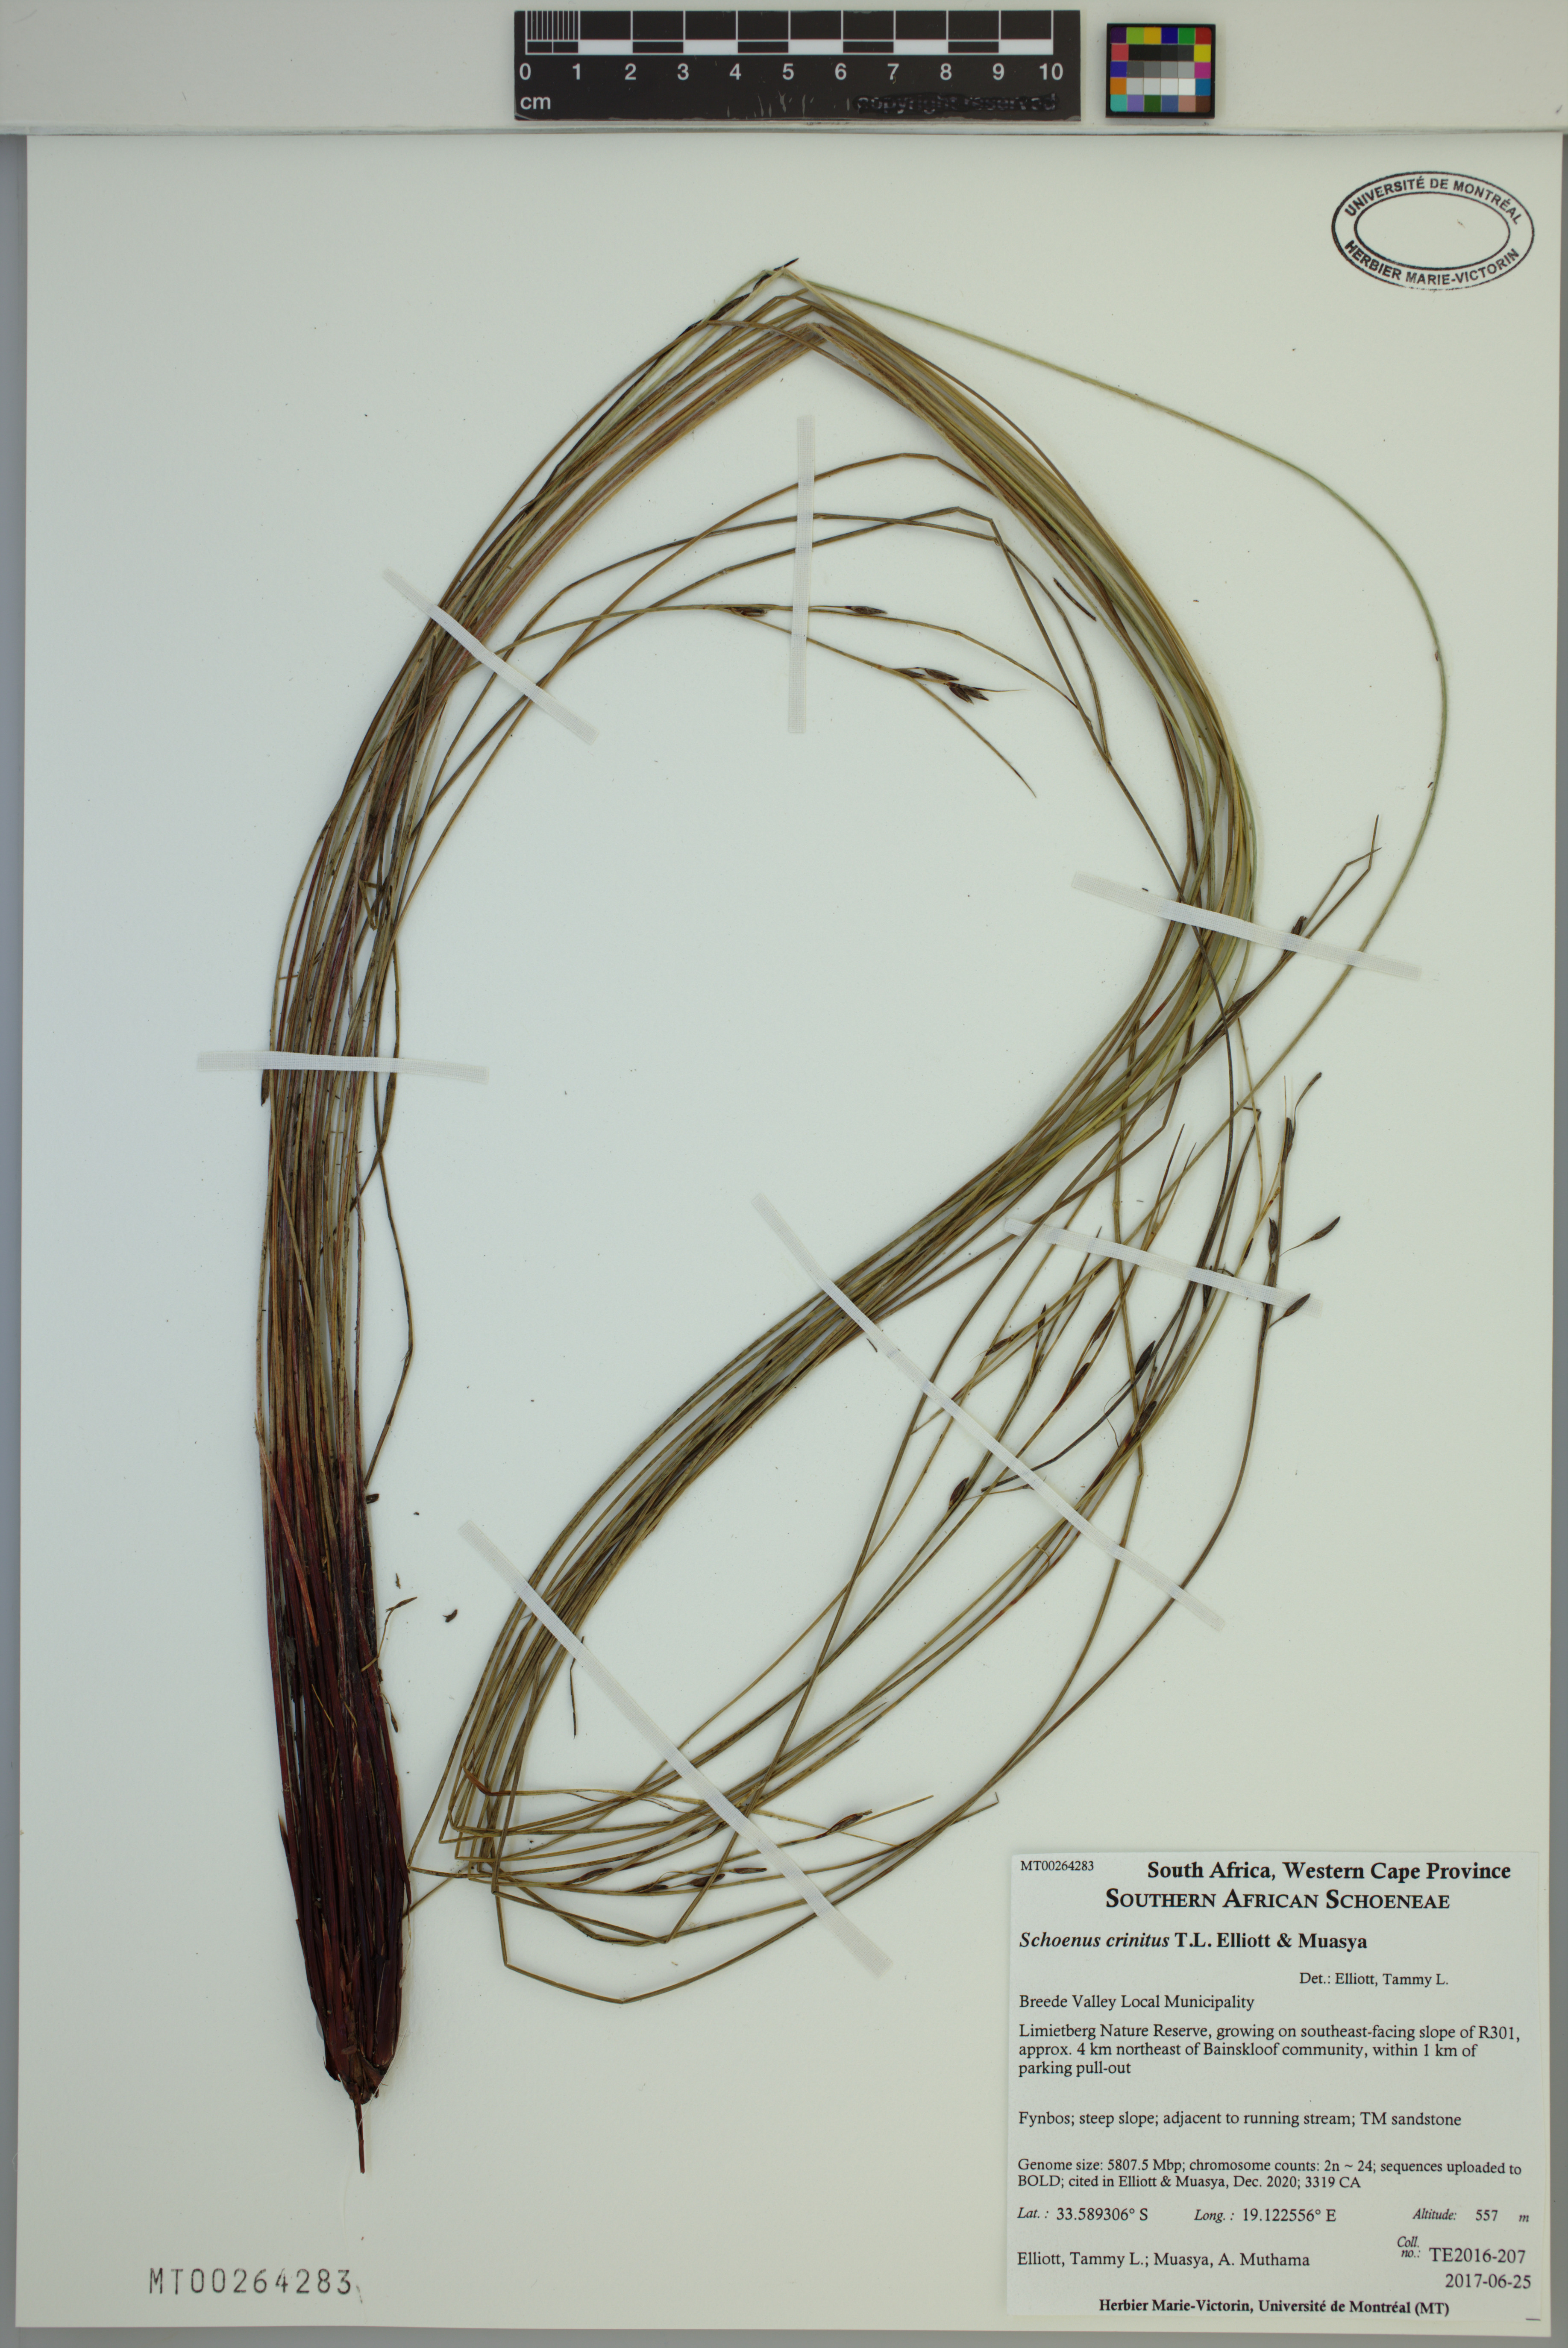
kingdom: Plantae
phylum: Tracheophyta
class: Liliopsida
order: Poales
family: Cyperaceae
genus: Schoenus
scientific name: Schoenus crinitus
